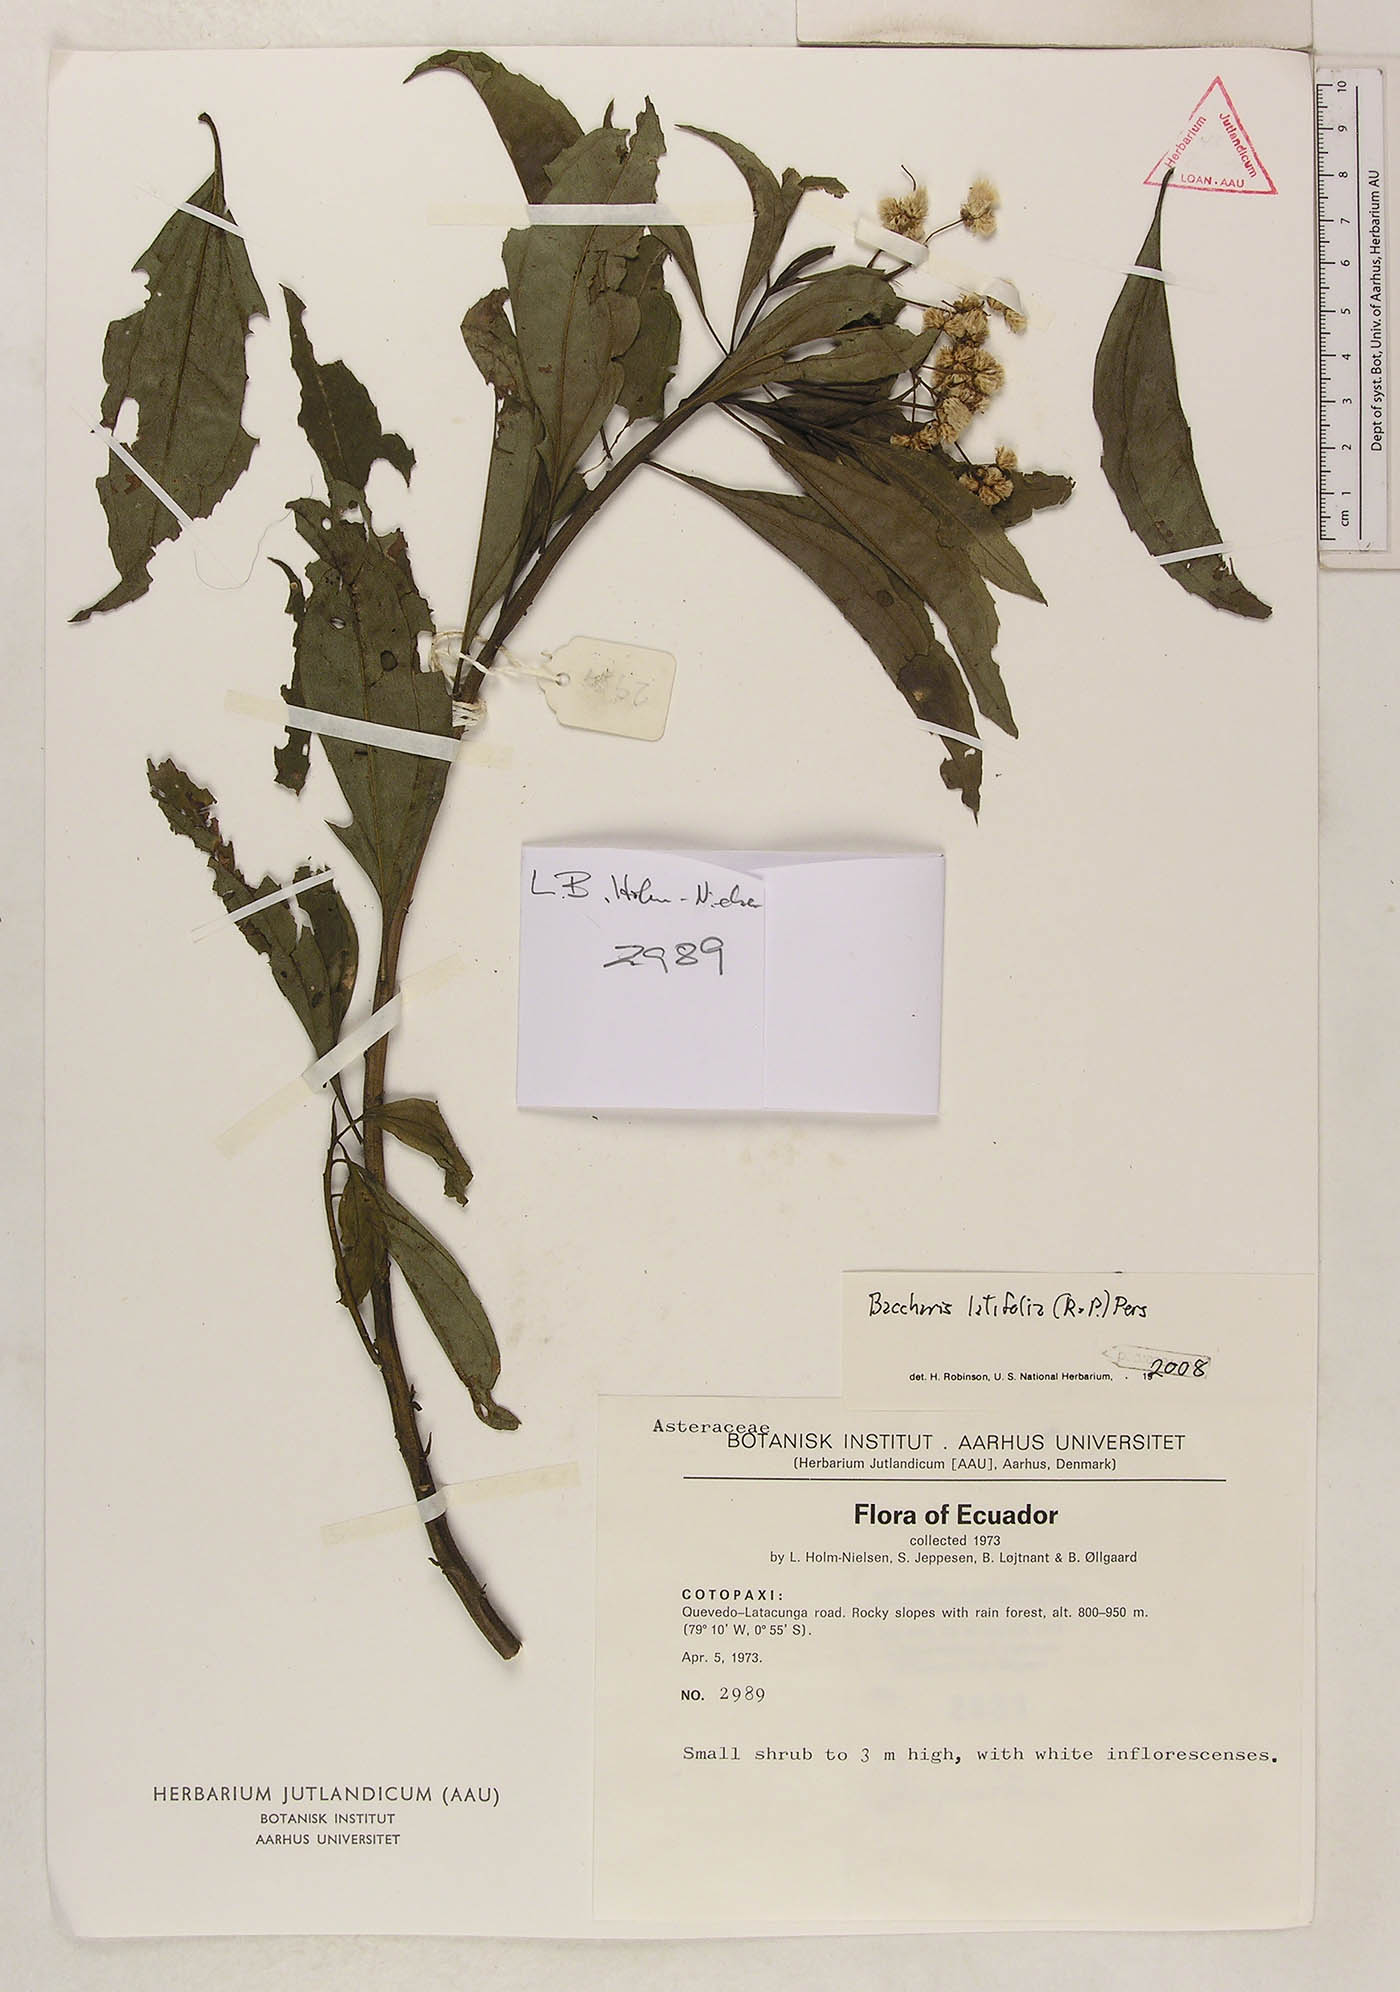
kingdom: Plantae
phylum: Tracheophyta
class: Magnoliopsida
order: Asterales
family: Asteraceae
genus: Baccharis
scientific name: Baccharis latifolia
